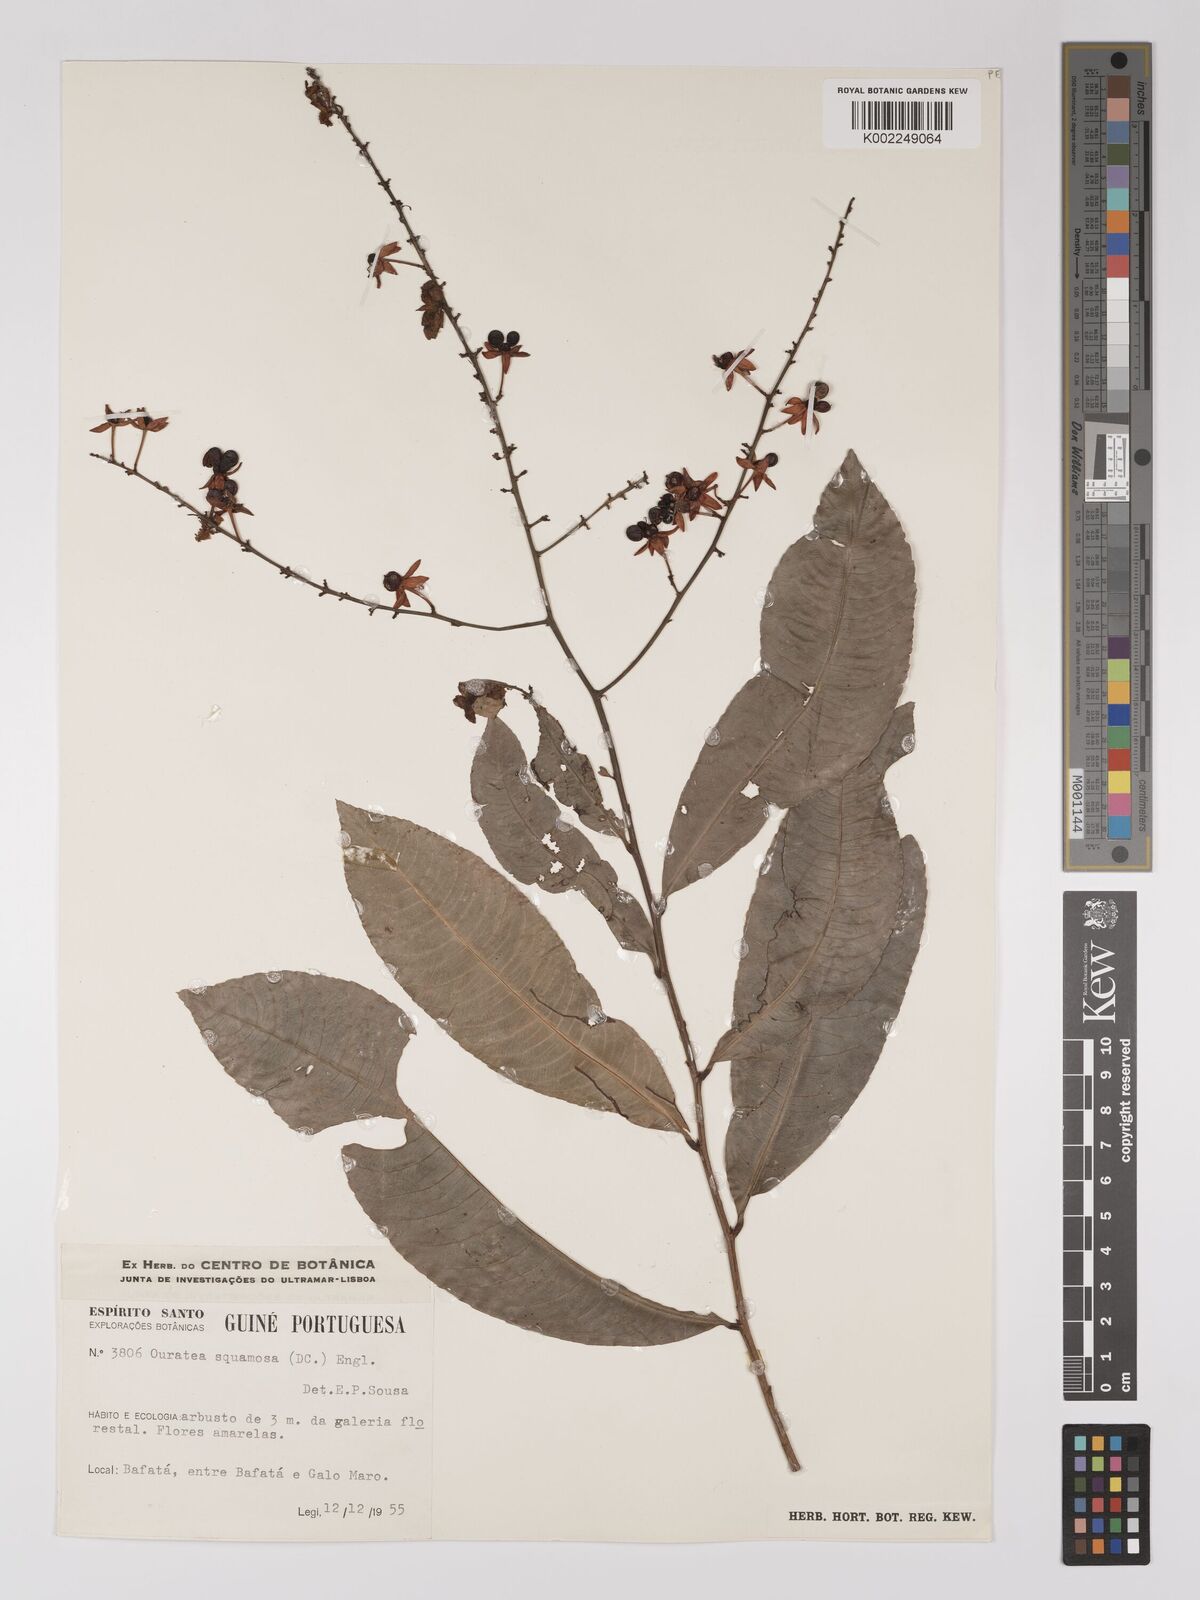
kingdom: Plantae
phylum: Tracheophyta
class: Magnoliopsida
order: Malpighiales
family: Ochnaceae
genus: Campylospermum
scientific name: Campylospermum squamosum
